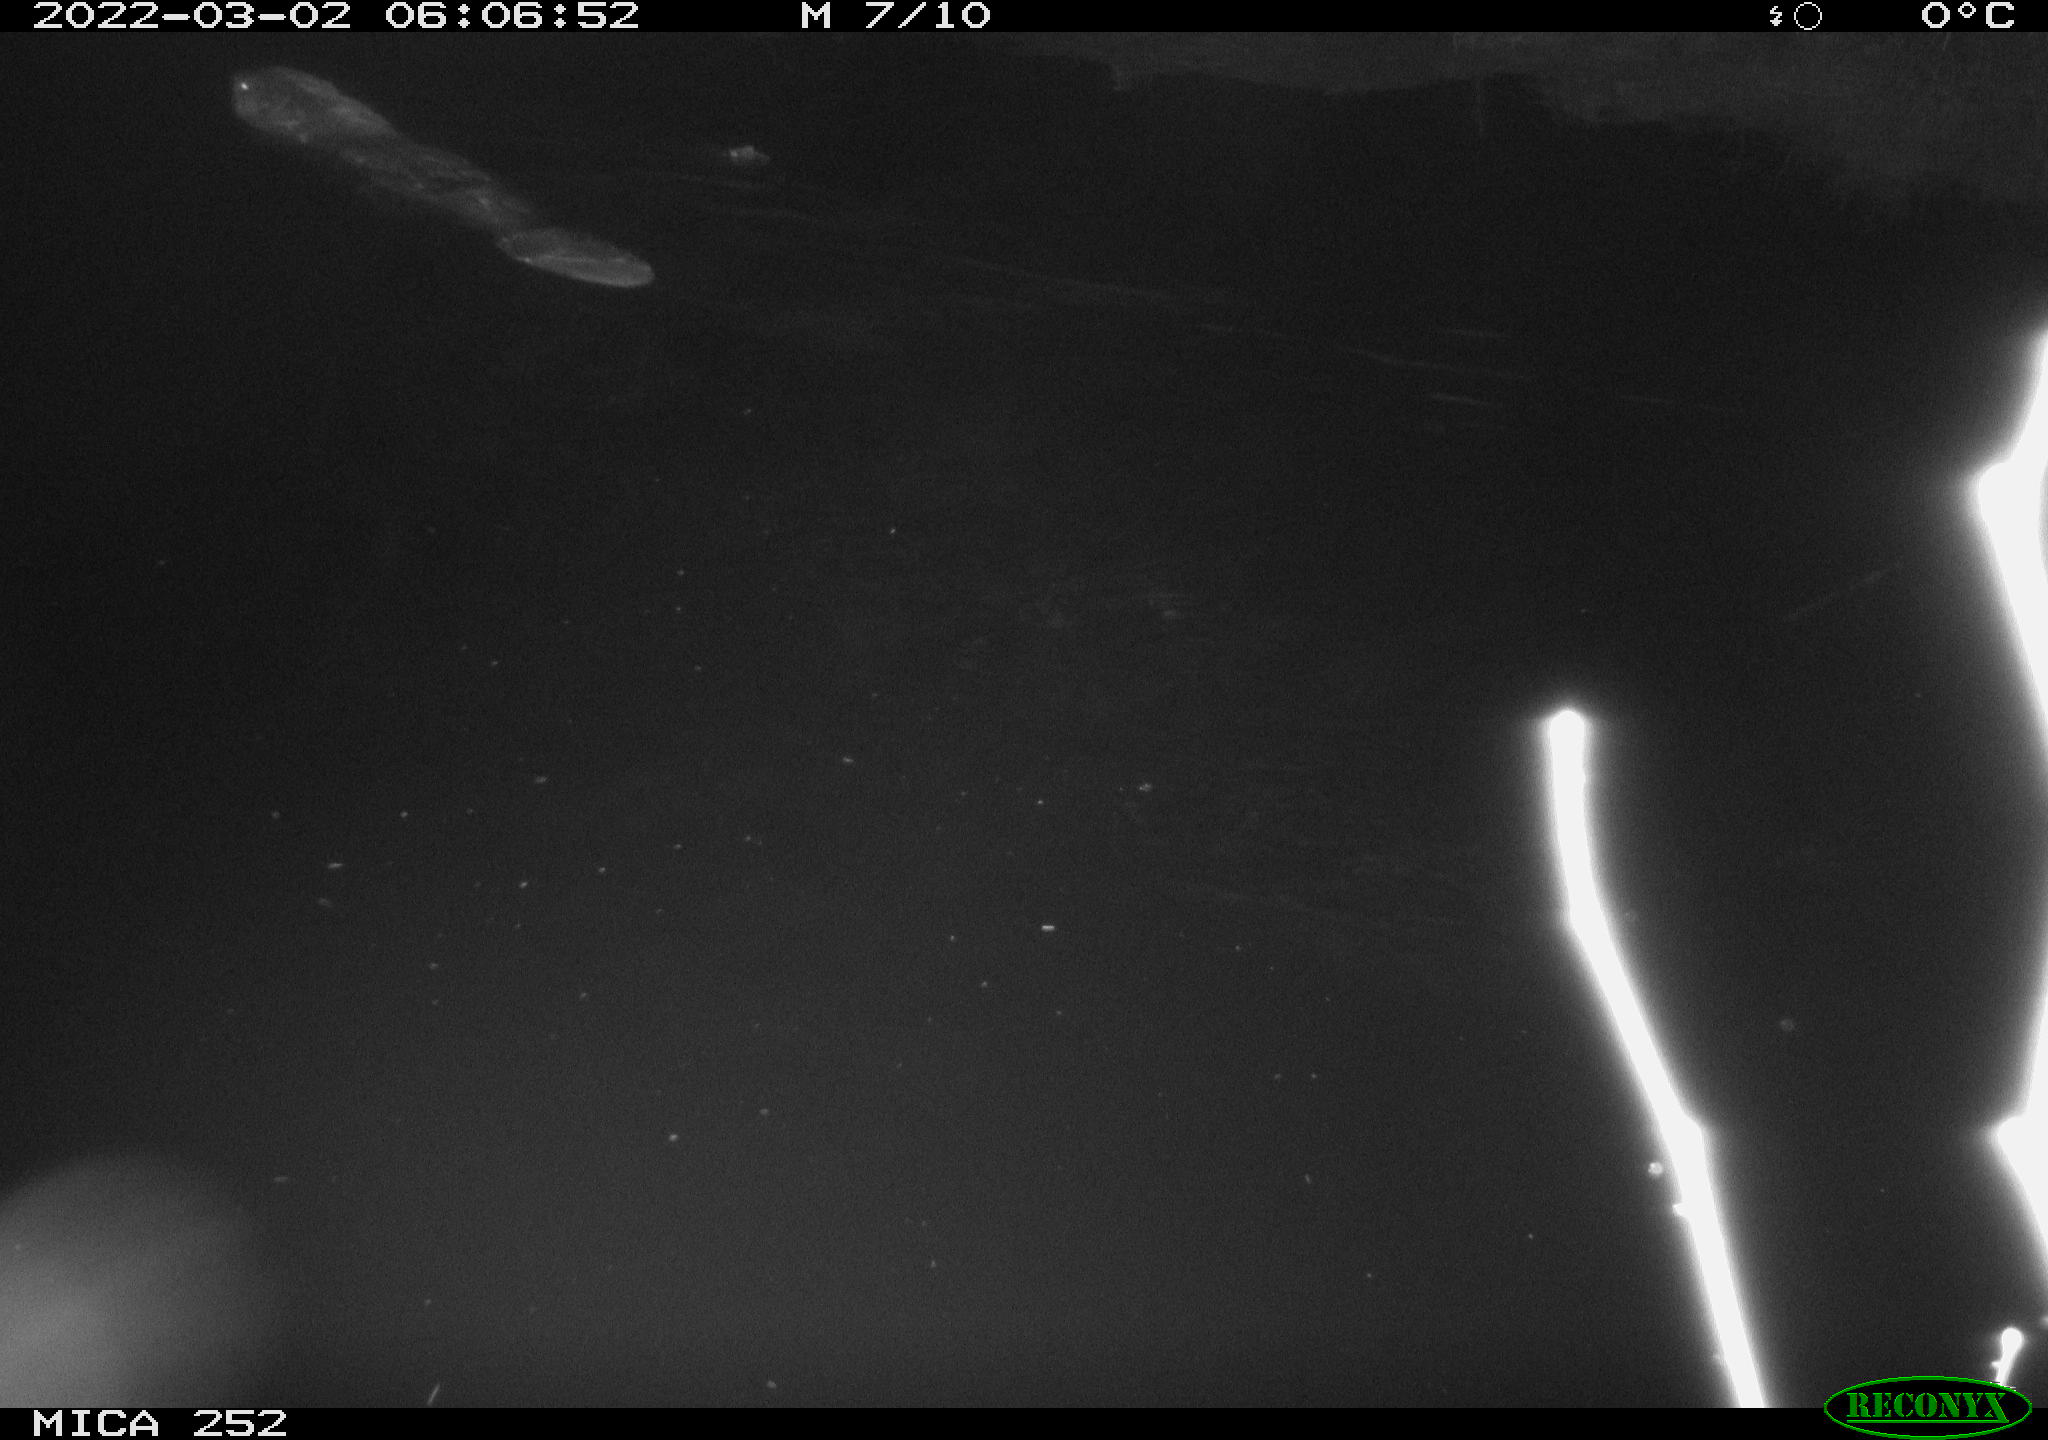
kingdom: Animalia
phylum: Chordata
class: Mammalia
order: Rodentia
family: Castoridae
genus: Castor
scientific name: Castor fiber
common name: Eurasian beaver
